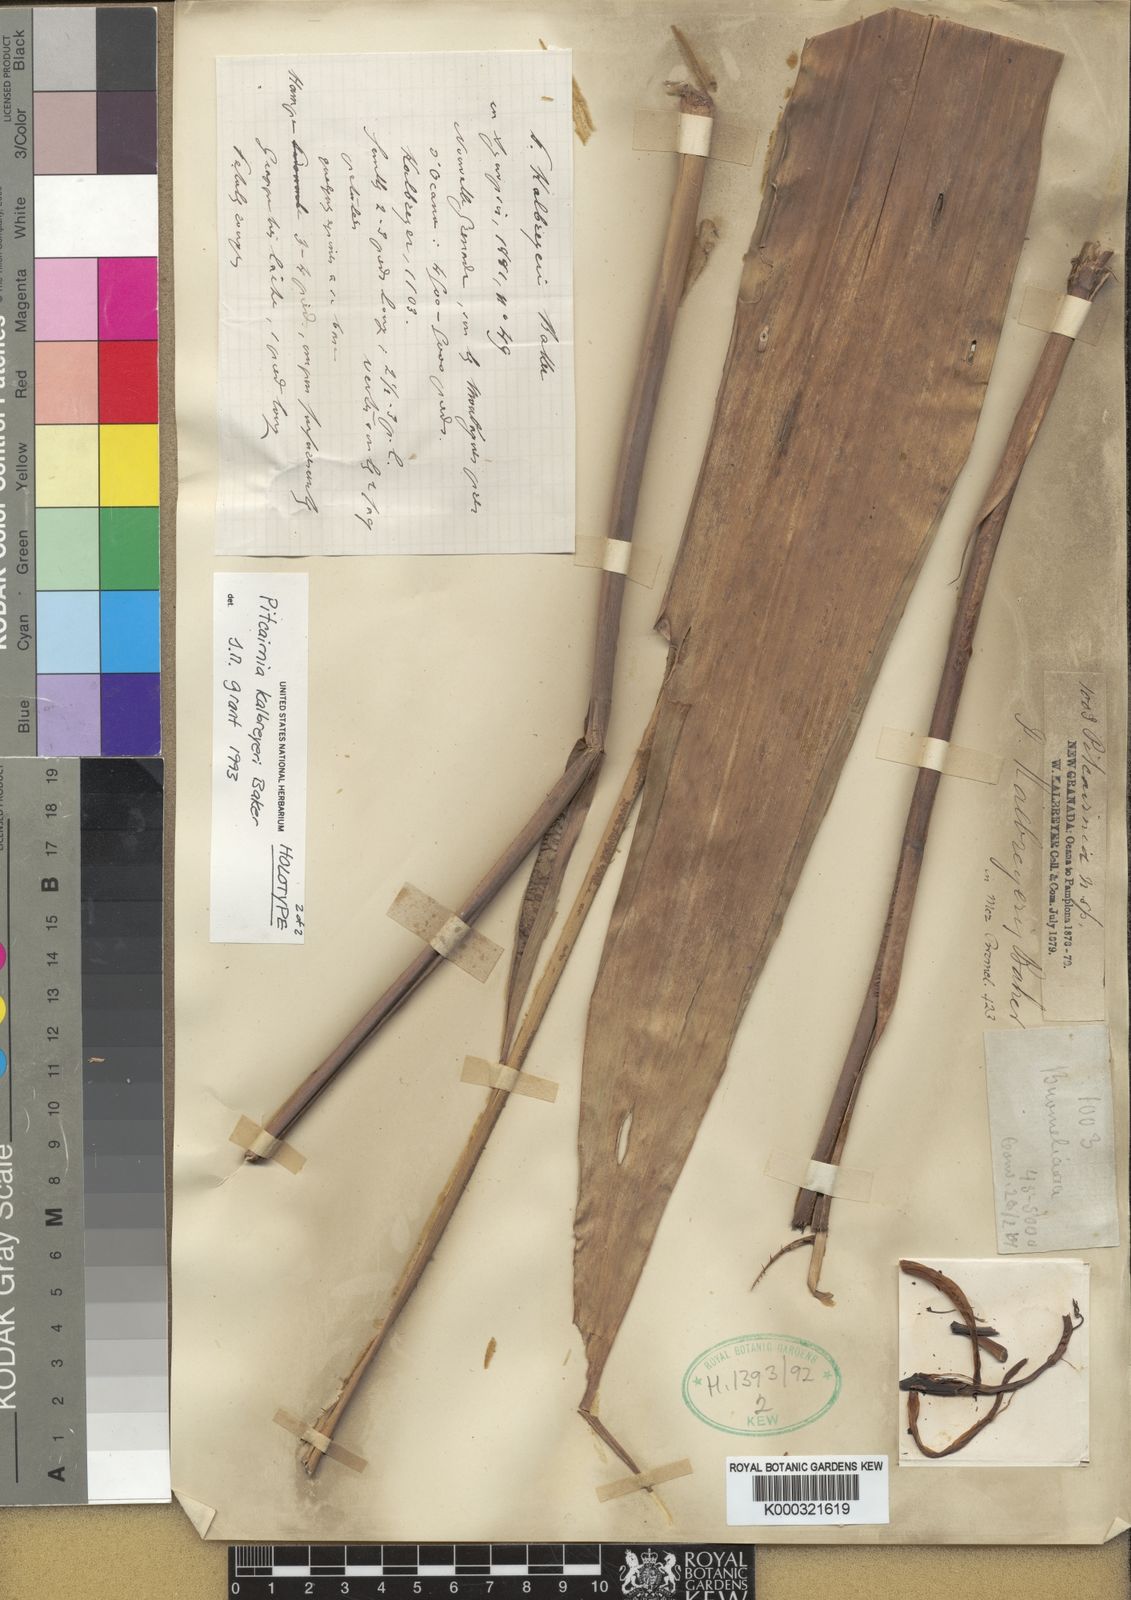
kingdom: Plantae
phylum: Tracheophyta
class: Liliopsida
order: Poales
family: Bromeliaceae
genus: Pitcairnia
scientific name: Pitcairnia kalbreyeri
